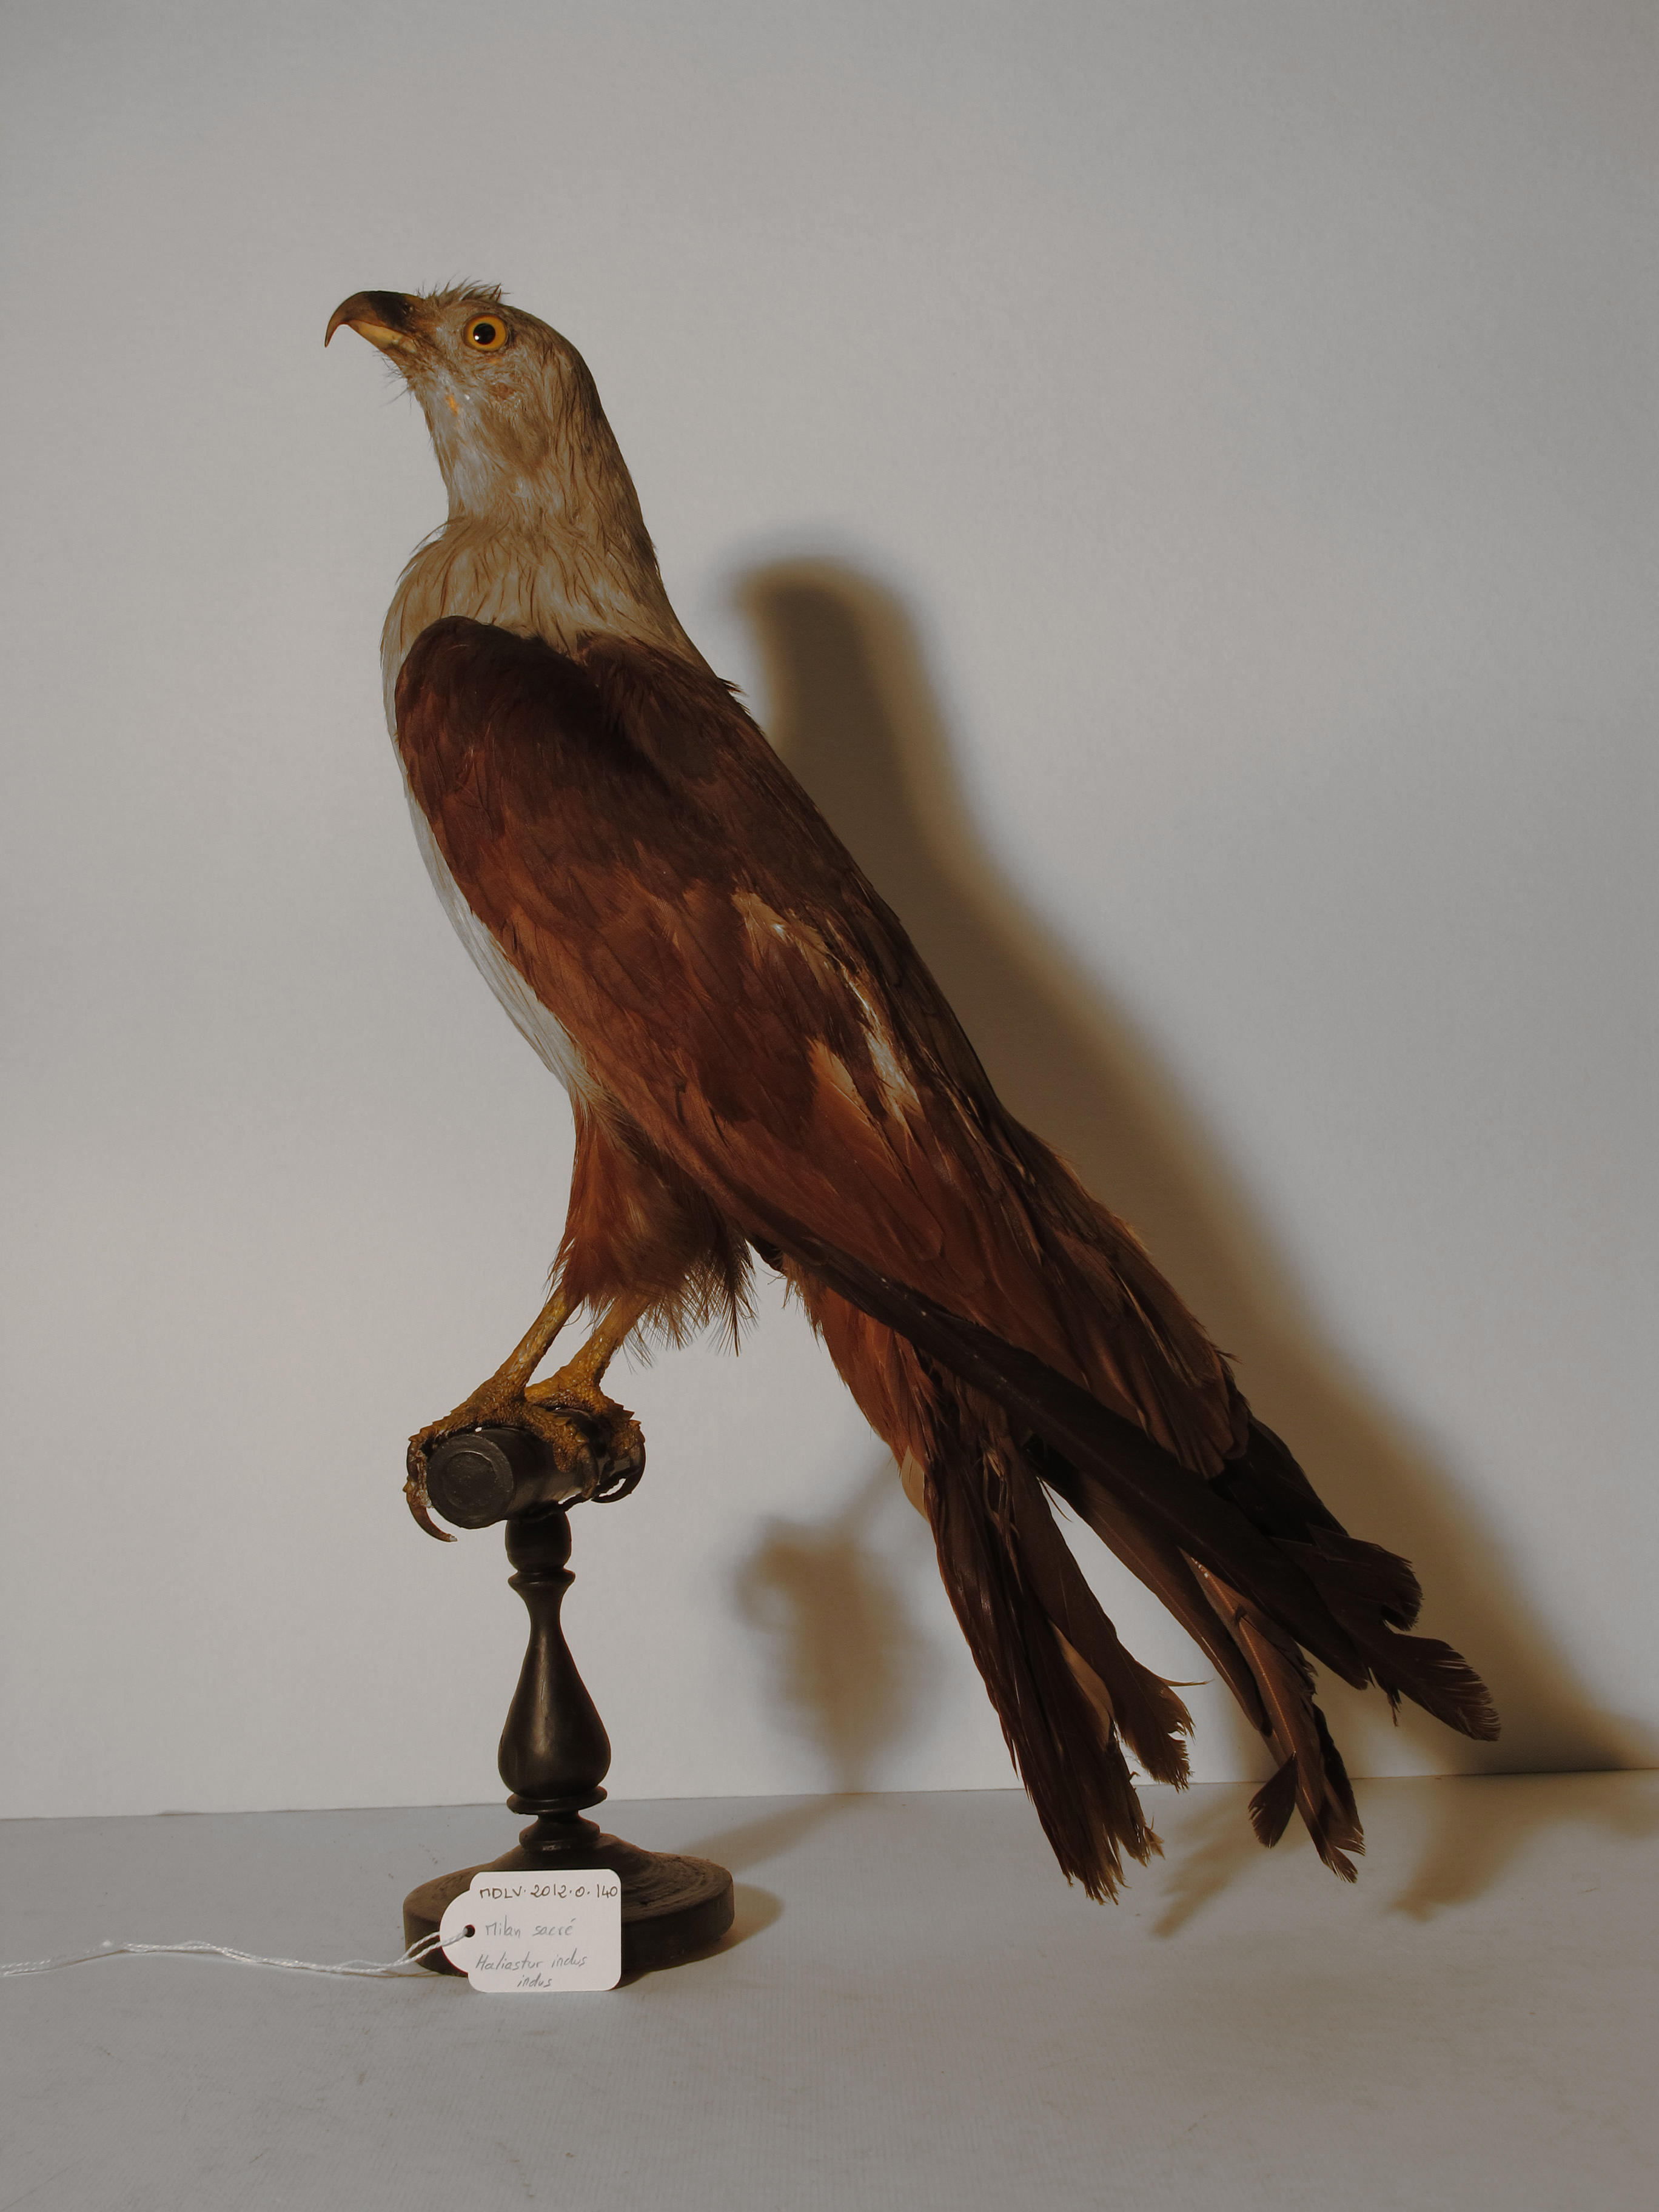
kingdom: Animalia
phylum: Chordata
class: Aves
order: Accipitriformes
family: Accipitridae
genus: Haliastur
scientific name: Haliastur indus
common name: Brahminy Kite
